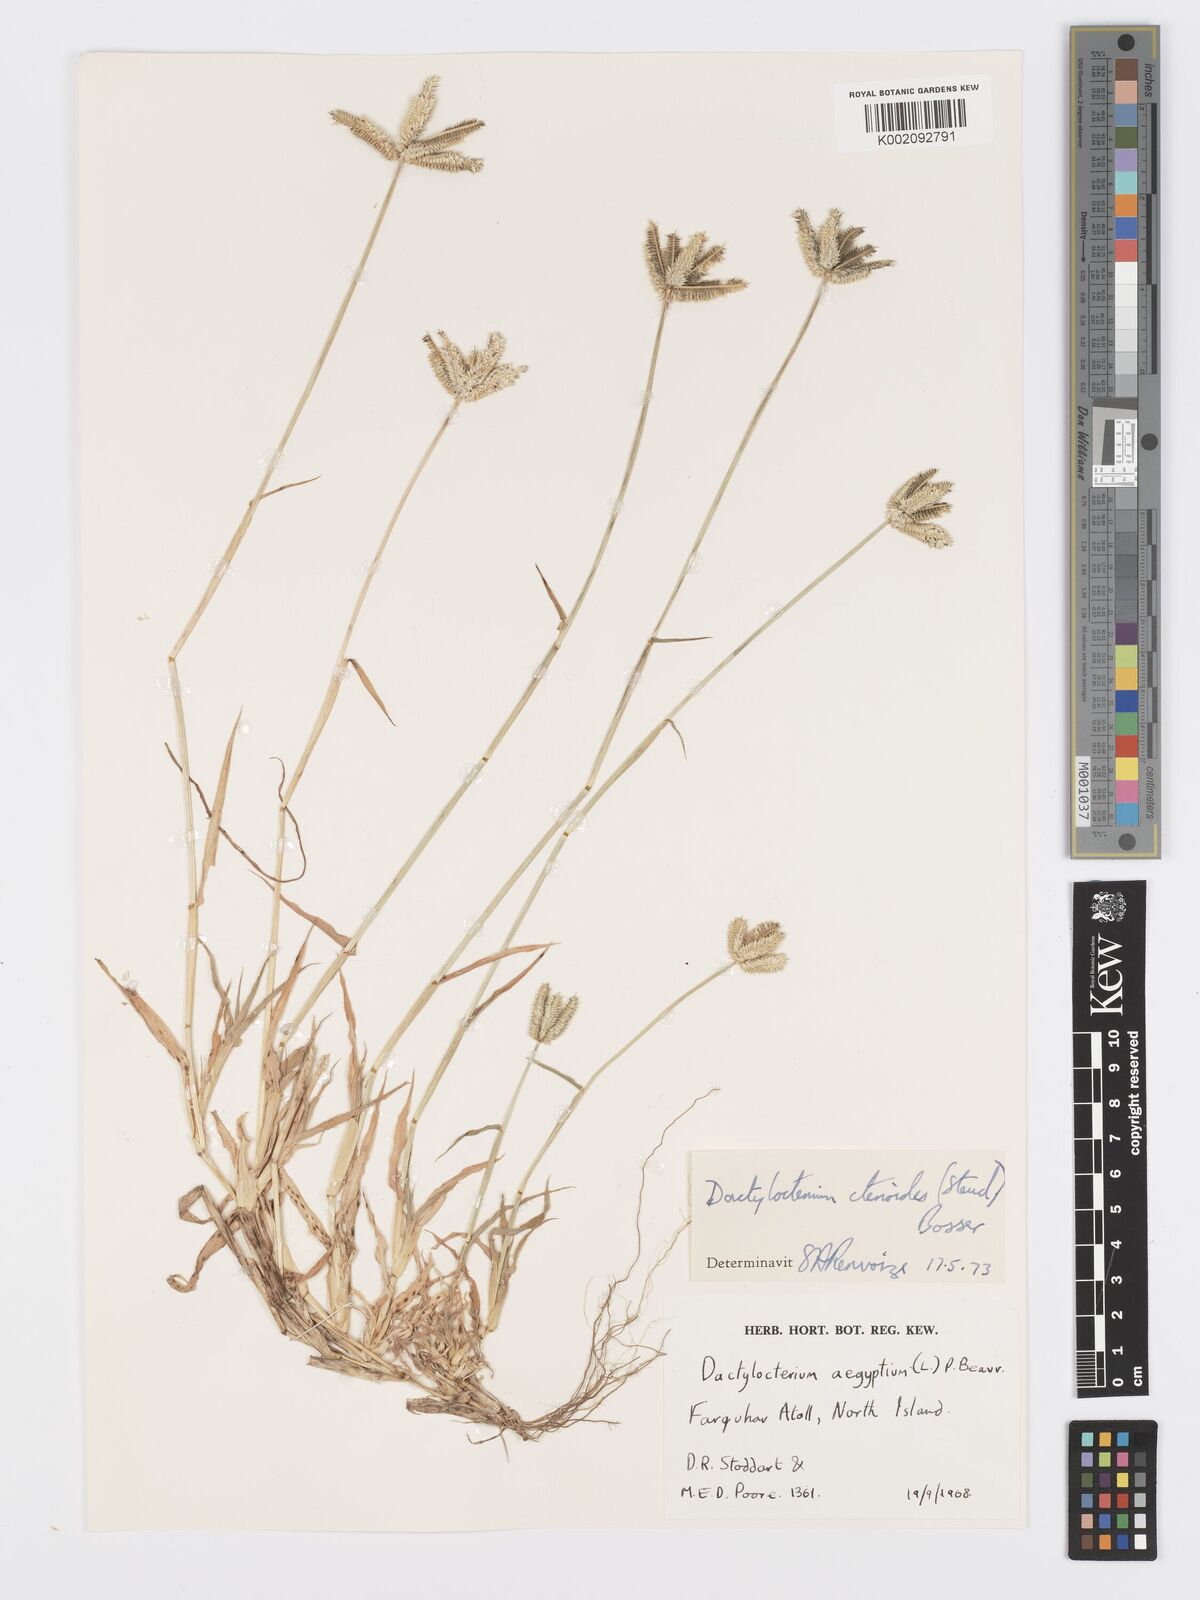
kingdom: Plantae
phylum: Tracheophyta
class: Liliopsida
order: Poales
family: Poaceae
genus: Dactyloctenium
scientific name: Dactyloctenium ctenoides
